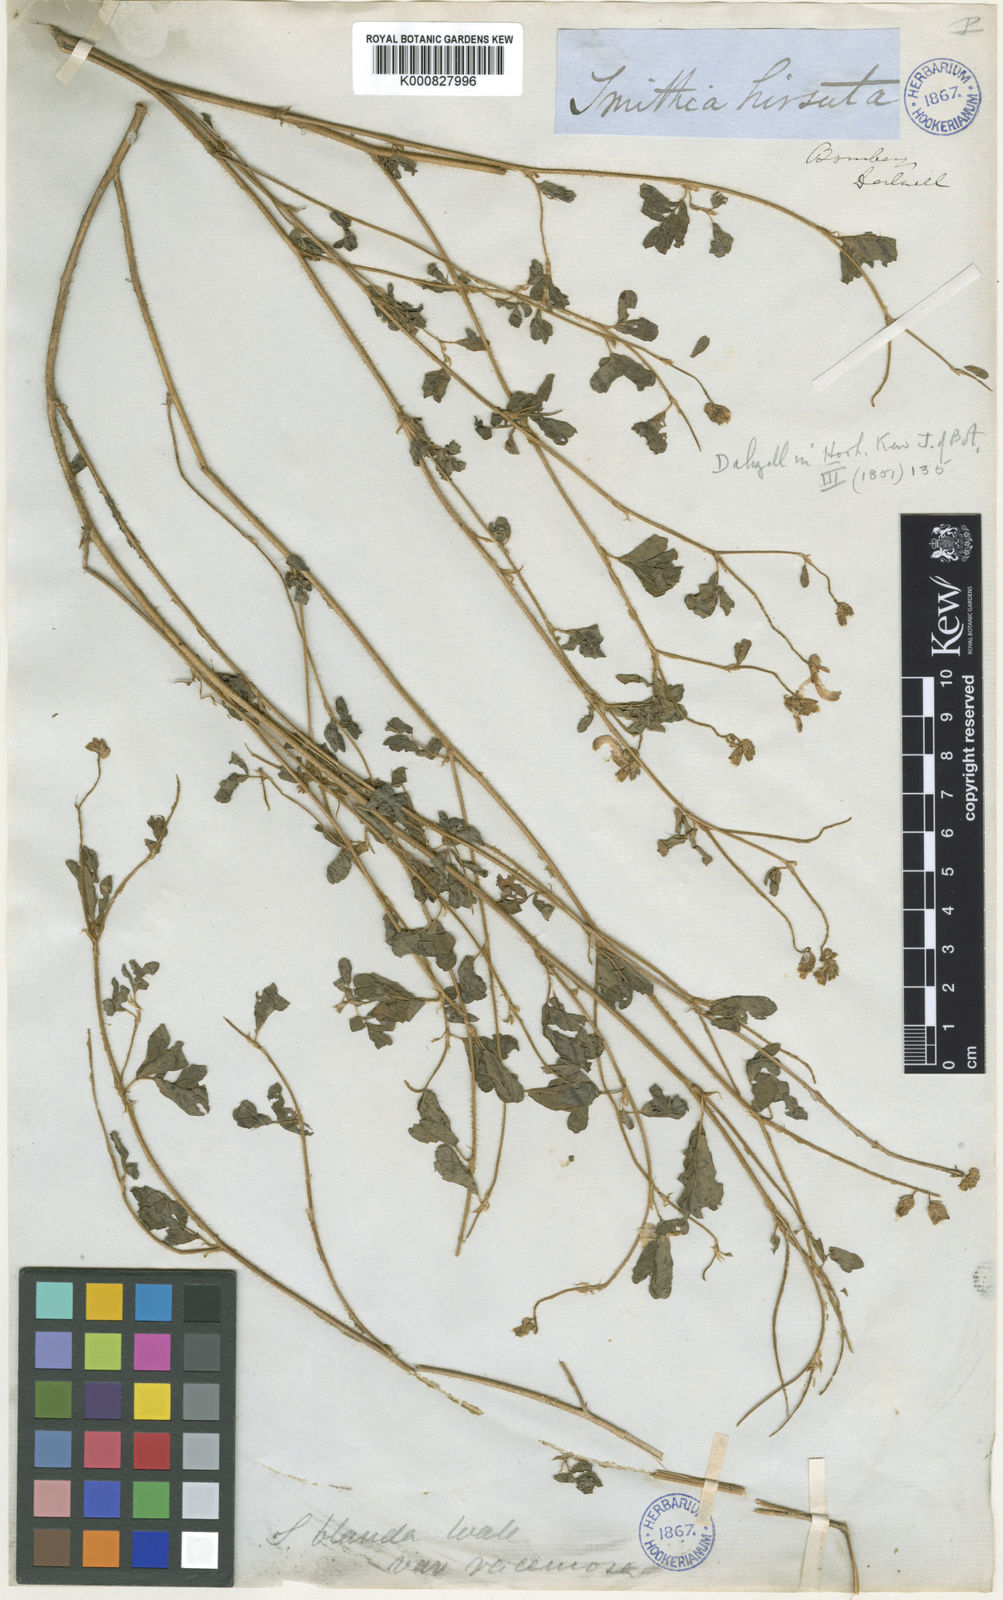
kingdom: Plantae
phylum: Tracheophyta
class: Magnoliopsida
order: Fabales
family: Fabaceae
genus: Smithia
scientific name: Smithia hirsuta
